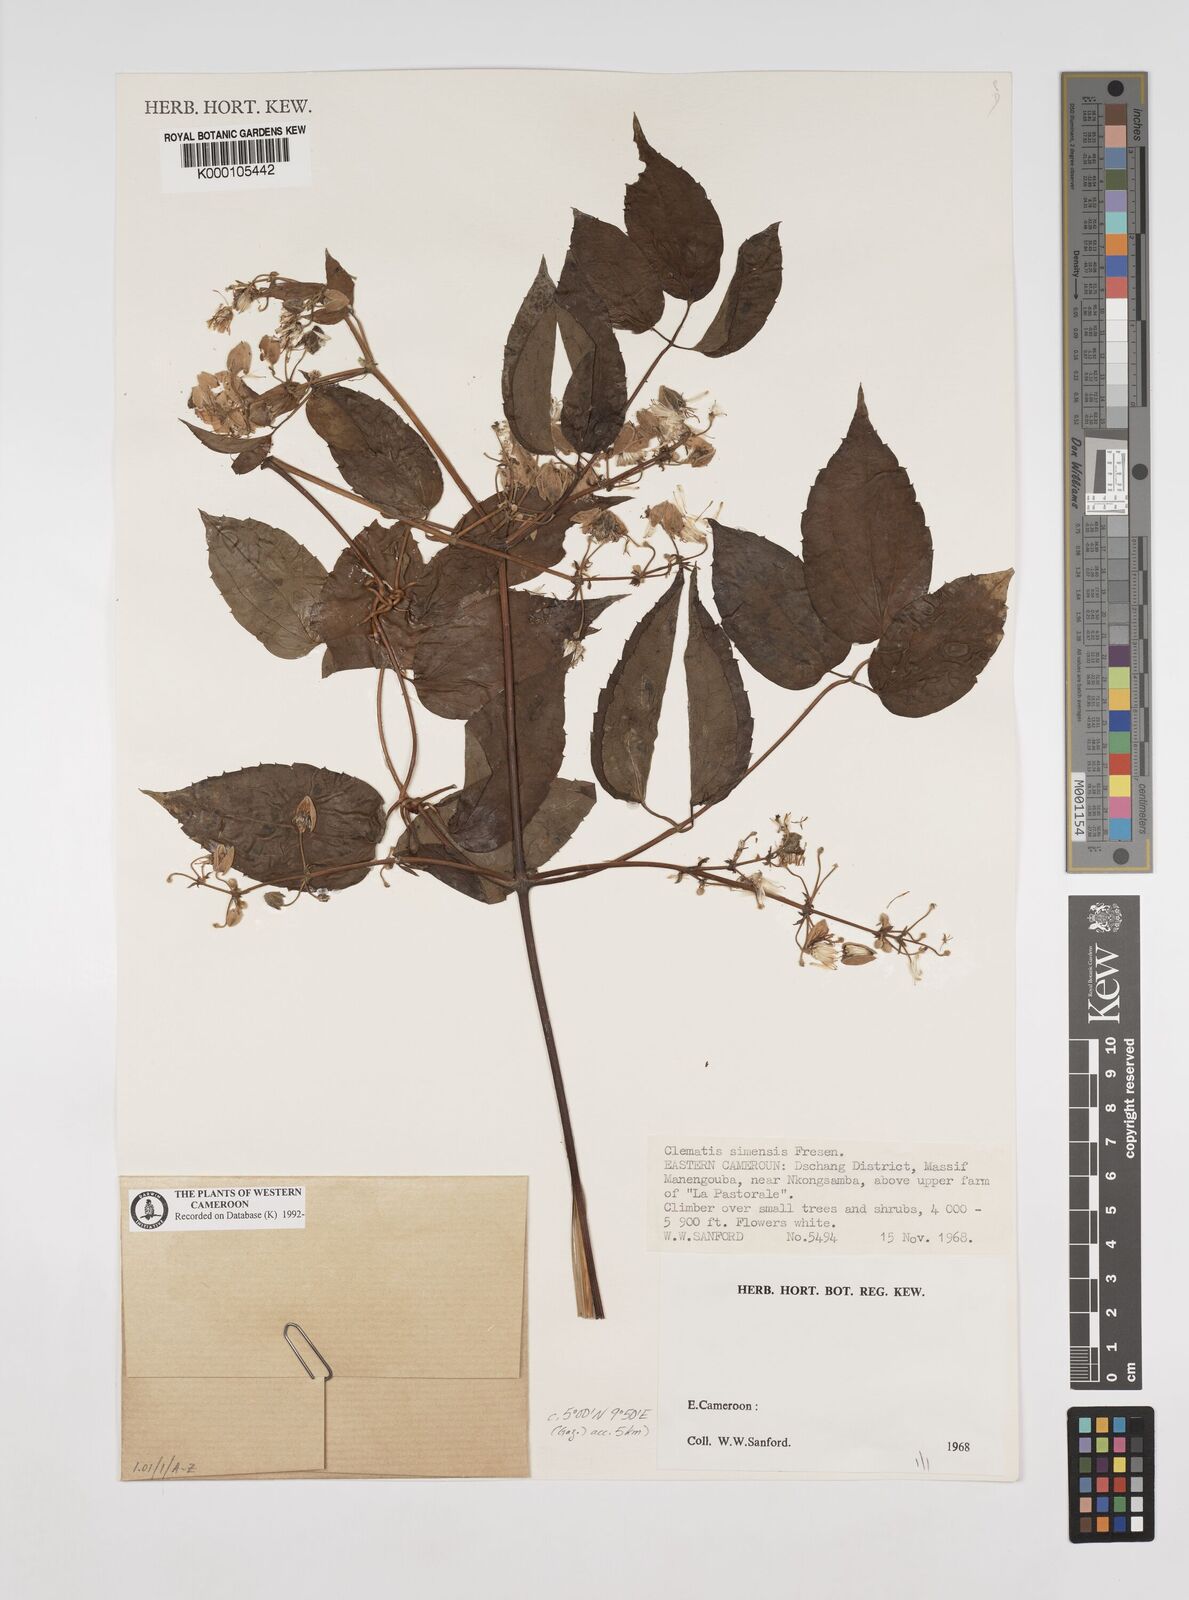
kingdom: Plantae
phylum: Tracheophyta
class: Magnoliopsida
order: Ranunculales
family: Ranunculaceae
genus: Clematis
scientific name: Clematis simensis
